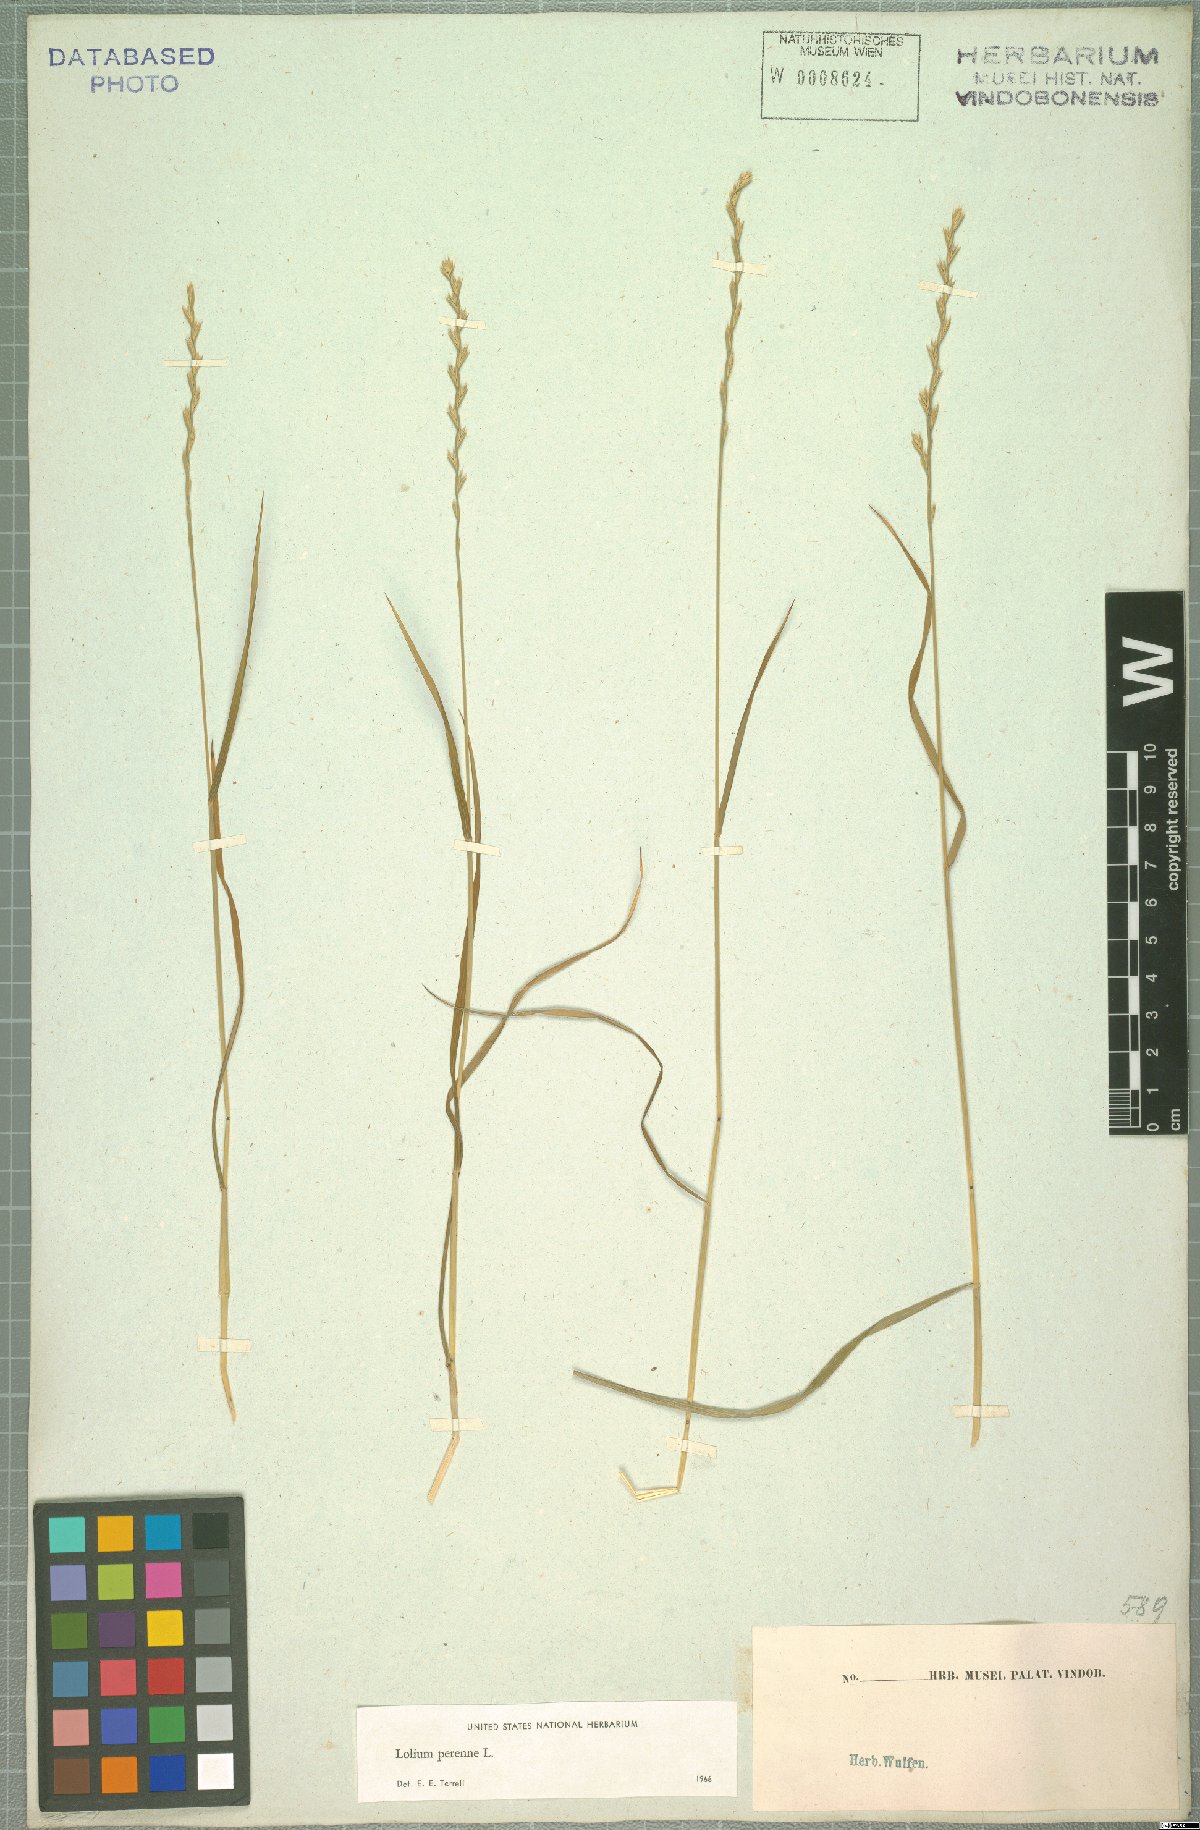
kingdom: Plantae
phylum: Tracheophyta
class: Liliopsida
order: Poales
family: Poaceae
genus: Lolium
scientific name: Lolium perenne
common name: Perennial ryegrass
